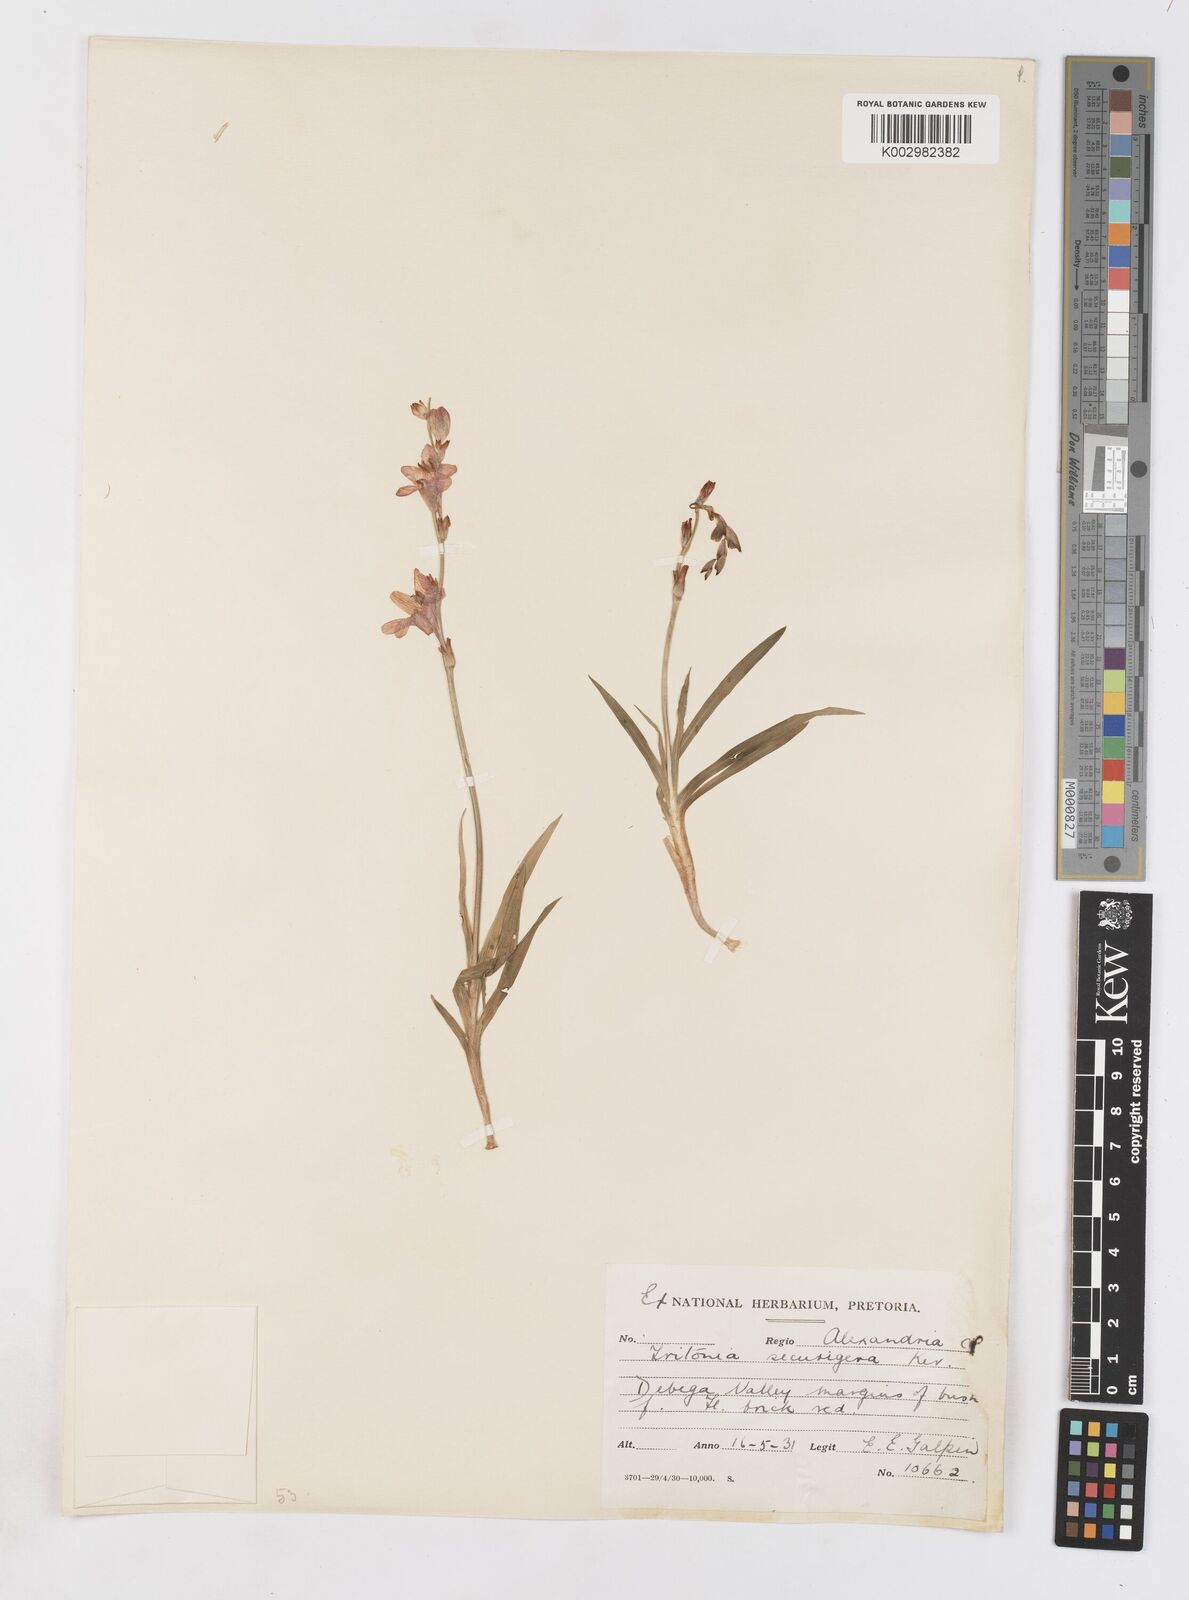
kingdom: Plantae
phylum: Tracheophyta
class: Liliopsida
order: Asparagales
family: Iridaceae
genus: Tritonia
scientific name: Tritonia securigera
